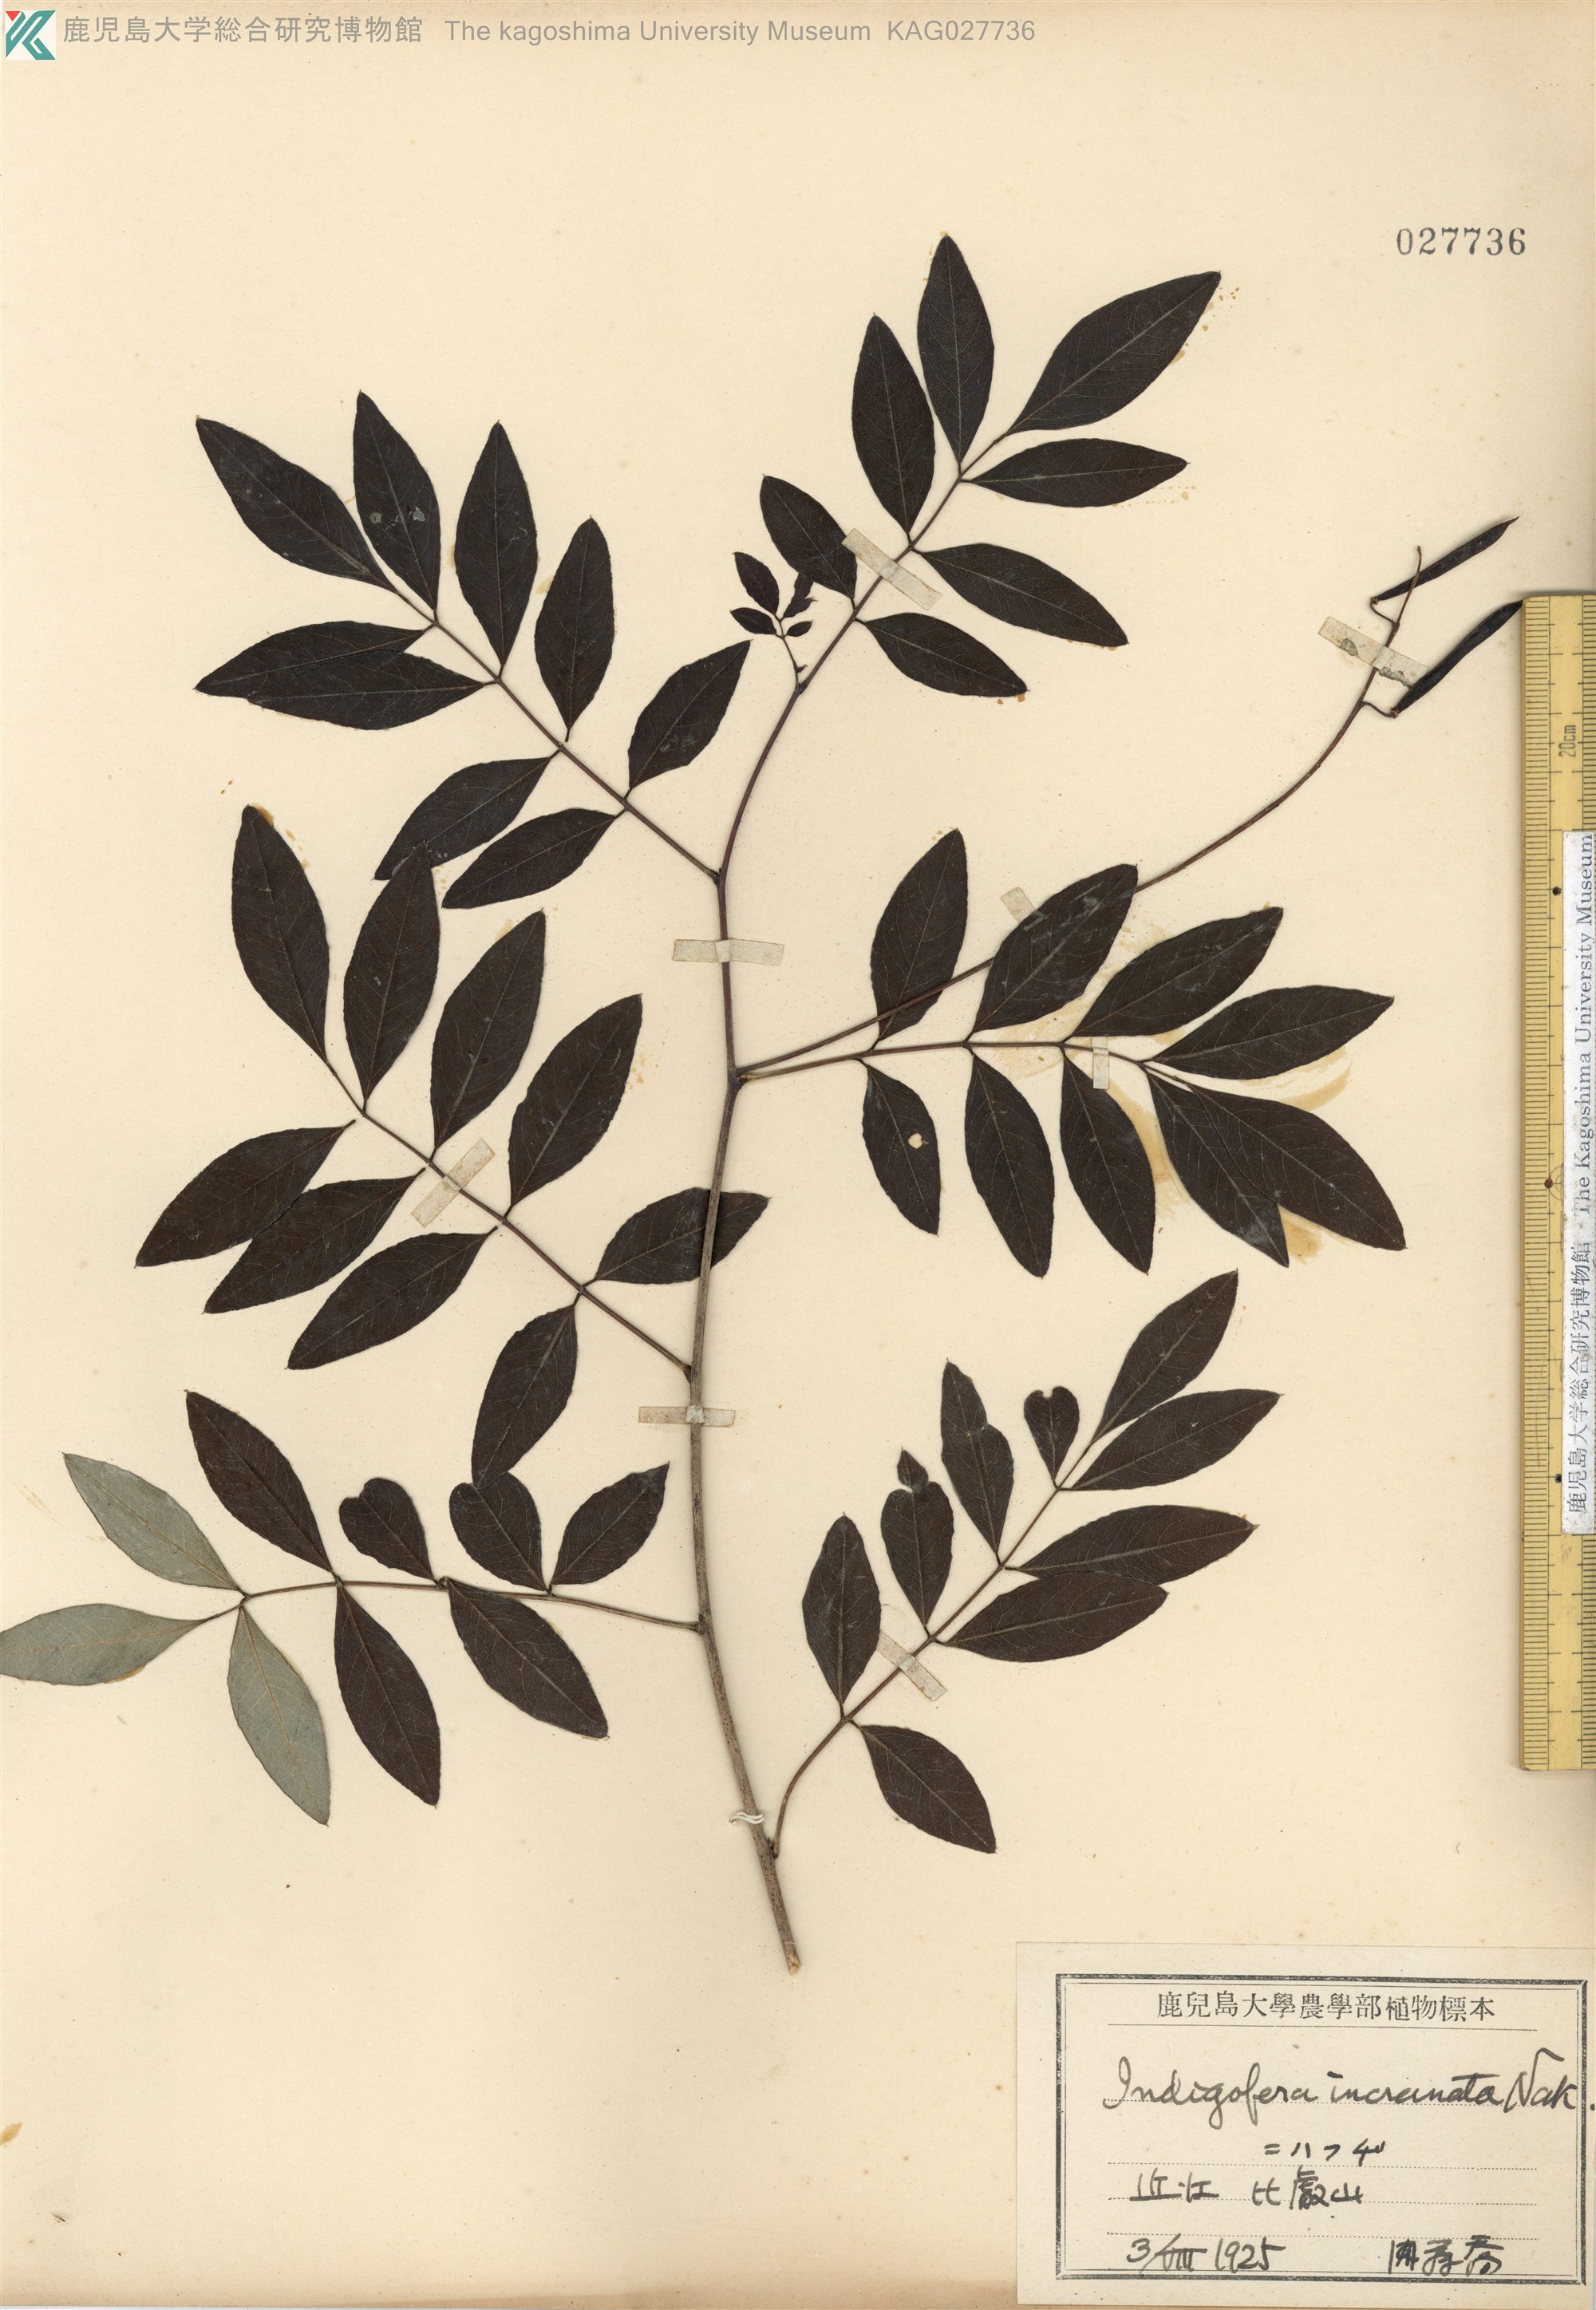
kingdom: Plantae
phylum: Tracheophyta
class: Magnoliopsida
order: Fabales
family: Fabaceae
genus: Indigofera
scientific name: Indigofera incarnata
